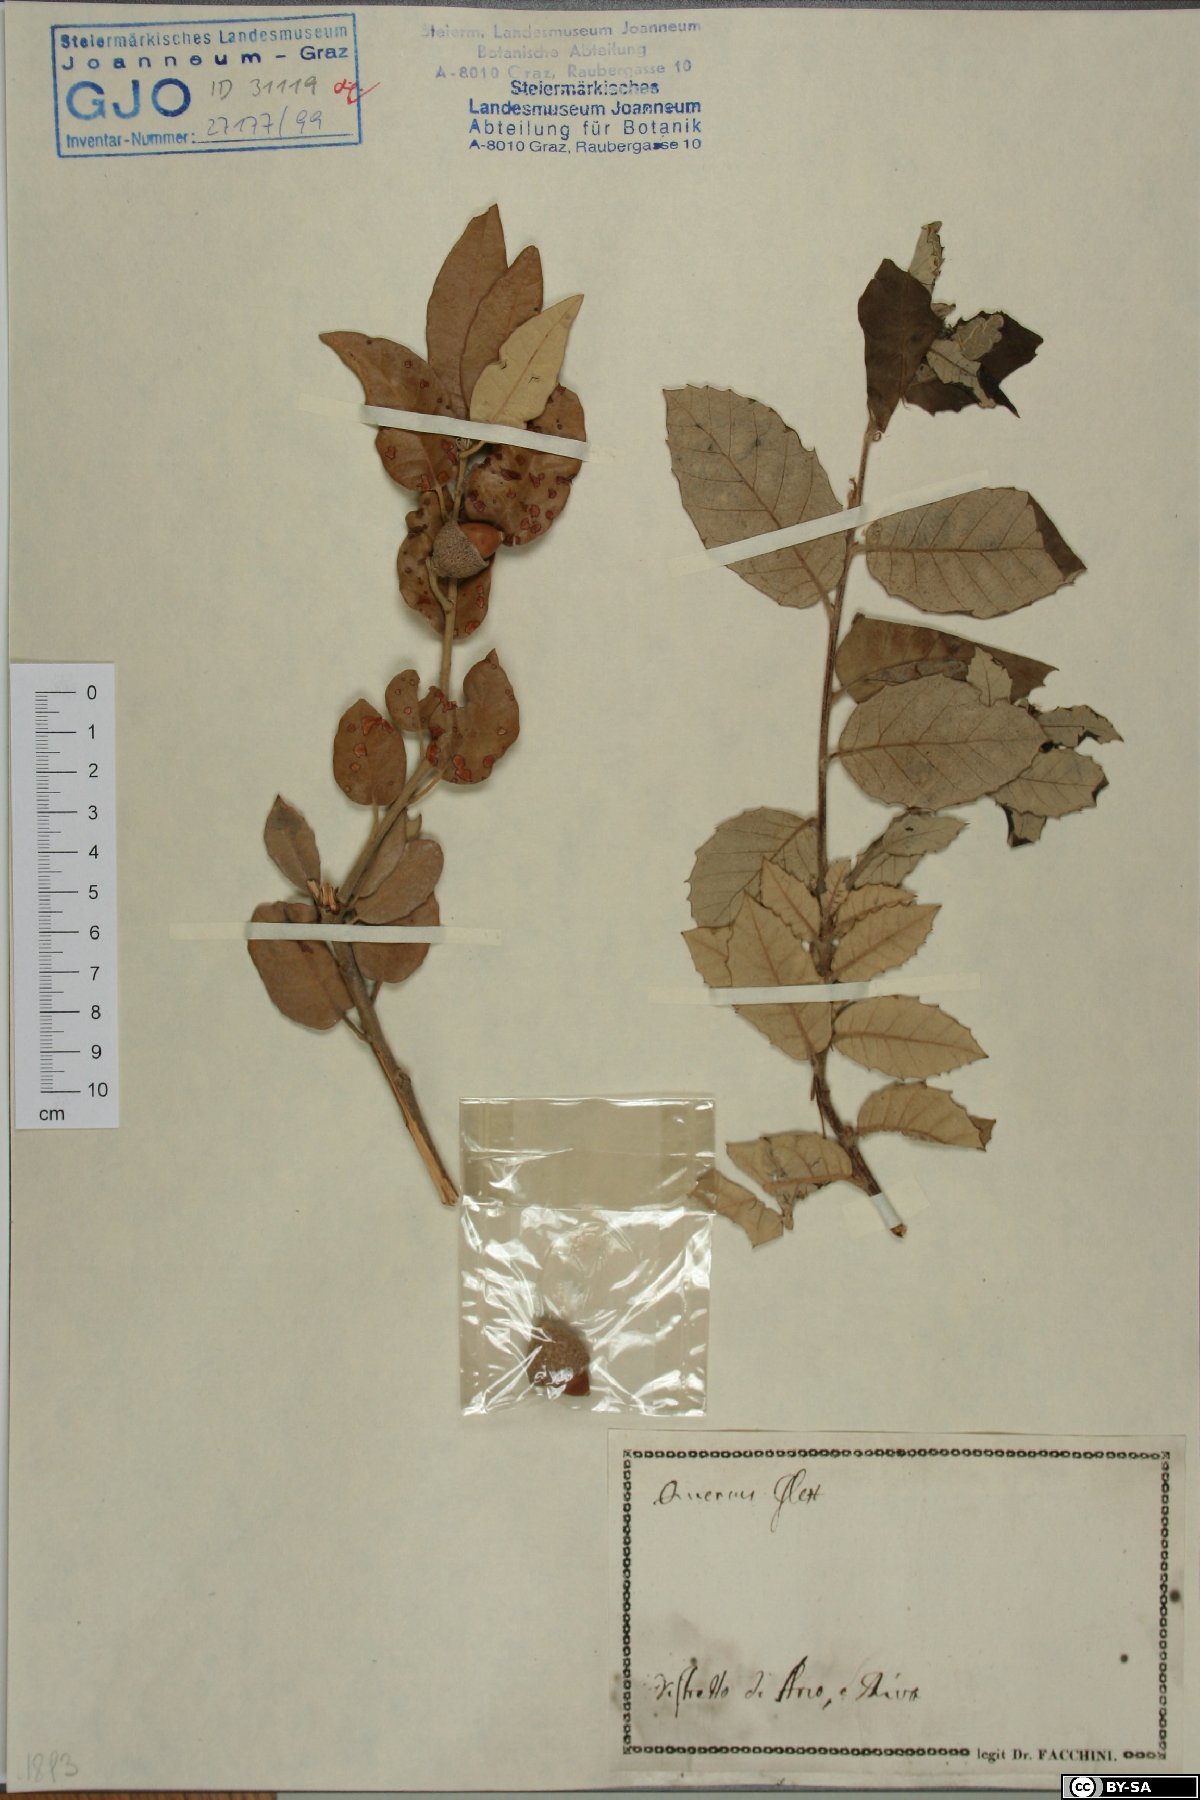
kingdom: Plantae
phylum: Tracheophyta
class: Magnoliopsida
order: Fagales
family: Fagaceae
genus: Quercus
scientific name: Quercus ilex
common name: Evergreen oak
